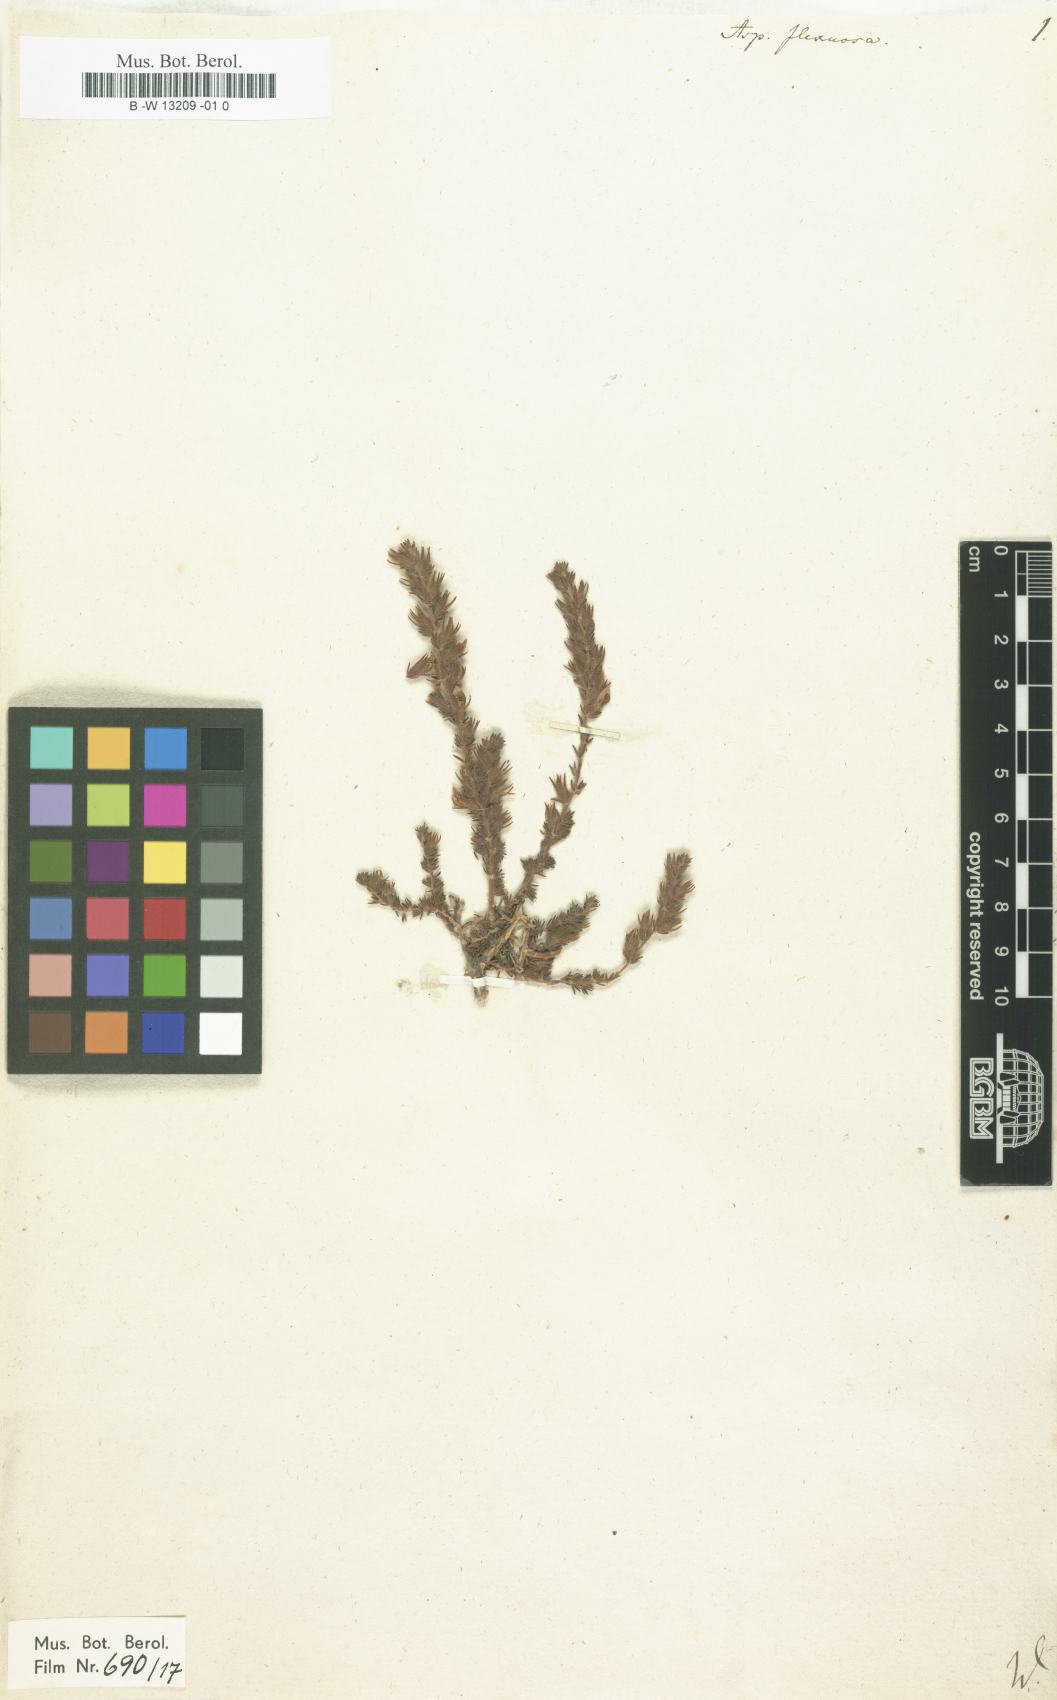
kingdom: Plantae
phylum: Tracheophyta
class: Magnoliopsida
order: Fabales
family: Fabaceae
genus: Aspalathus
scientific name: Aspalathus flexuosa
